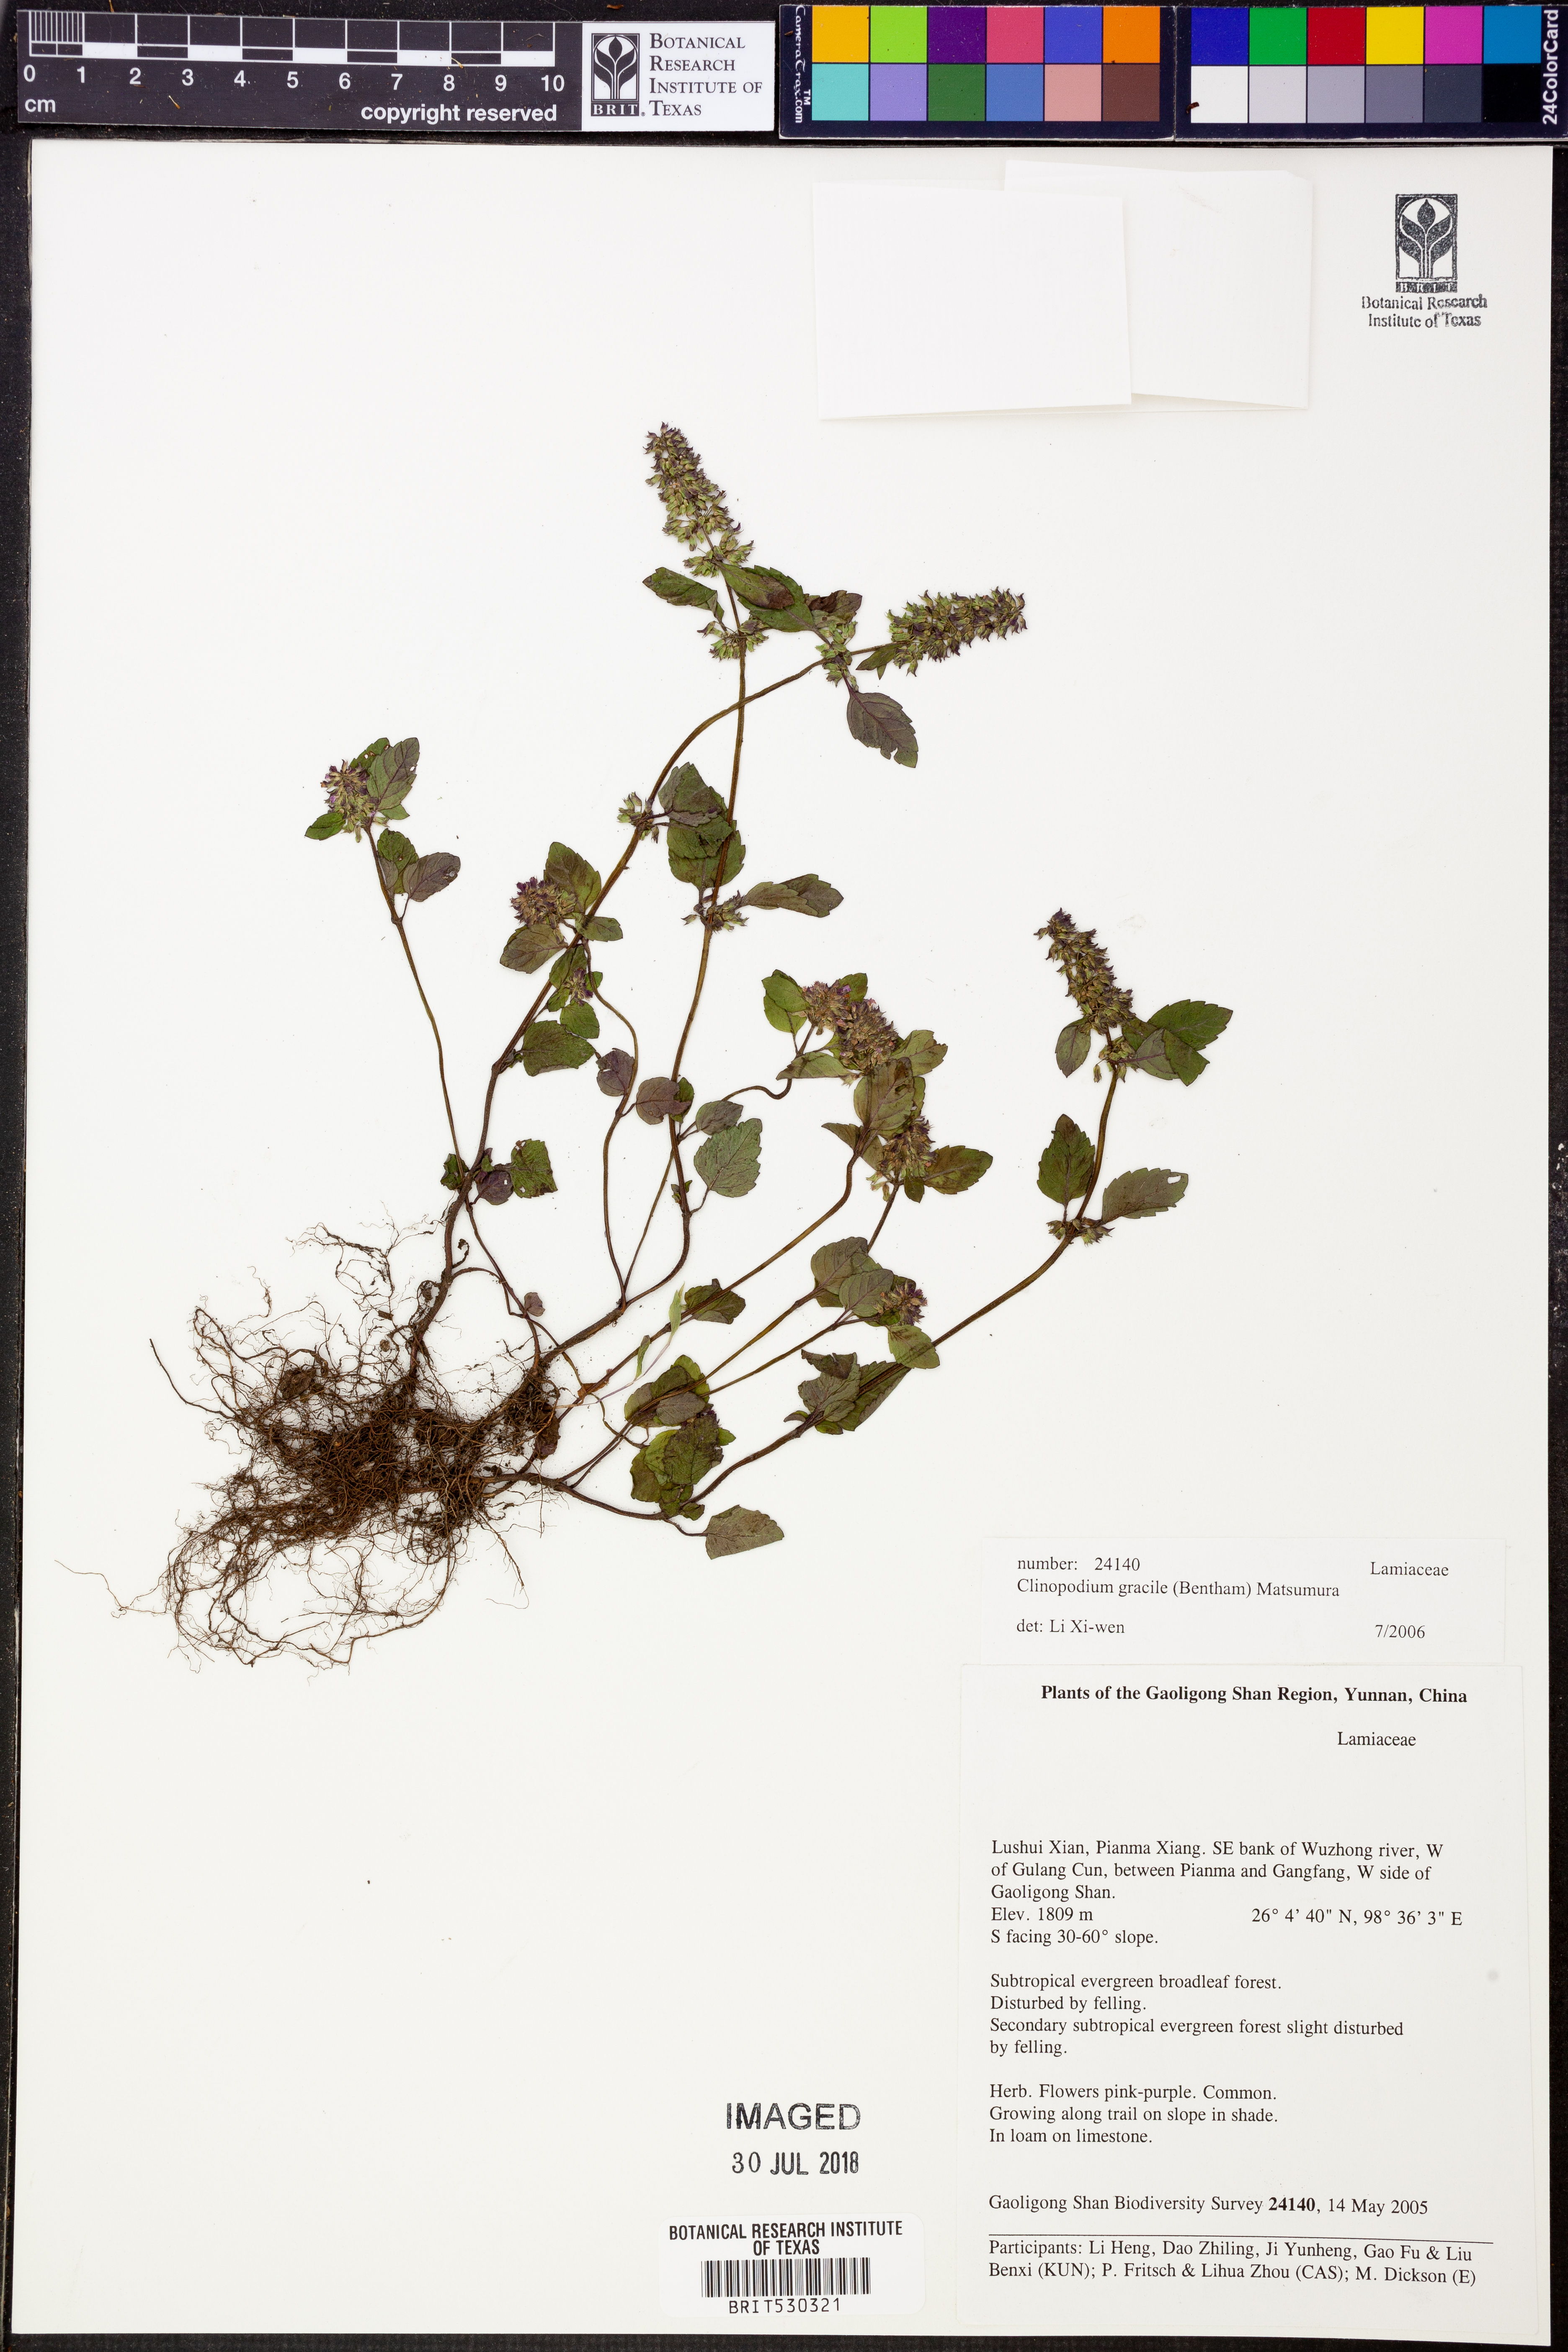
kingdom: Plantae
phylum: Tracheophyta
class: Magnoliopsida
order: Lamiales
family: Lamiaceae
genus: Clinopodium
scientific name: Clinopodium gracile
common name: Slender wild basil
